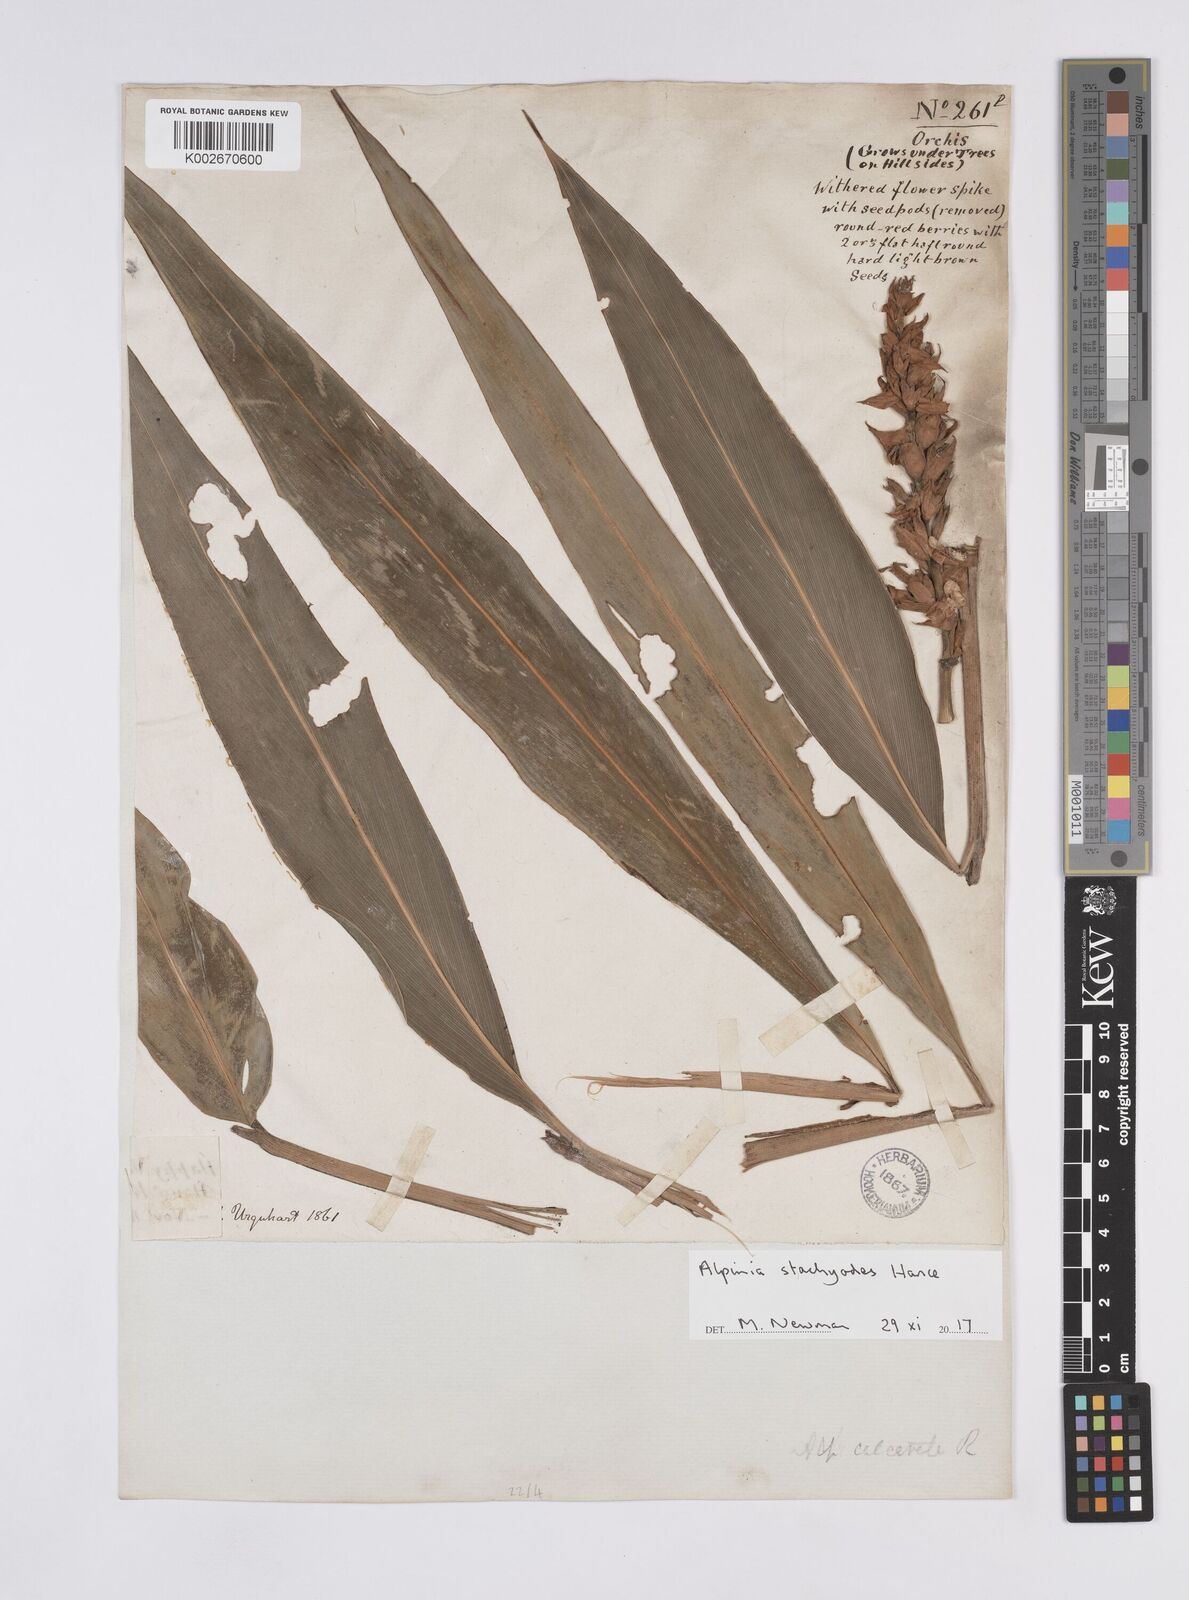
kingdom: Plantae
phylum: Tracheophyta
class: Liliopsida
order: Zingiberales
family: Zingiberaceae
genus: Alpinia
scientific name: Alpinia stachyodes
